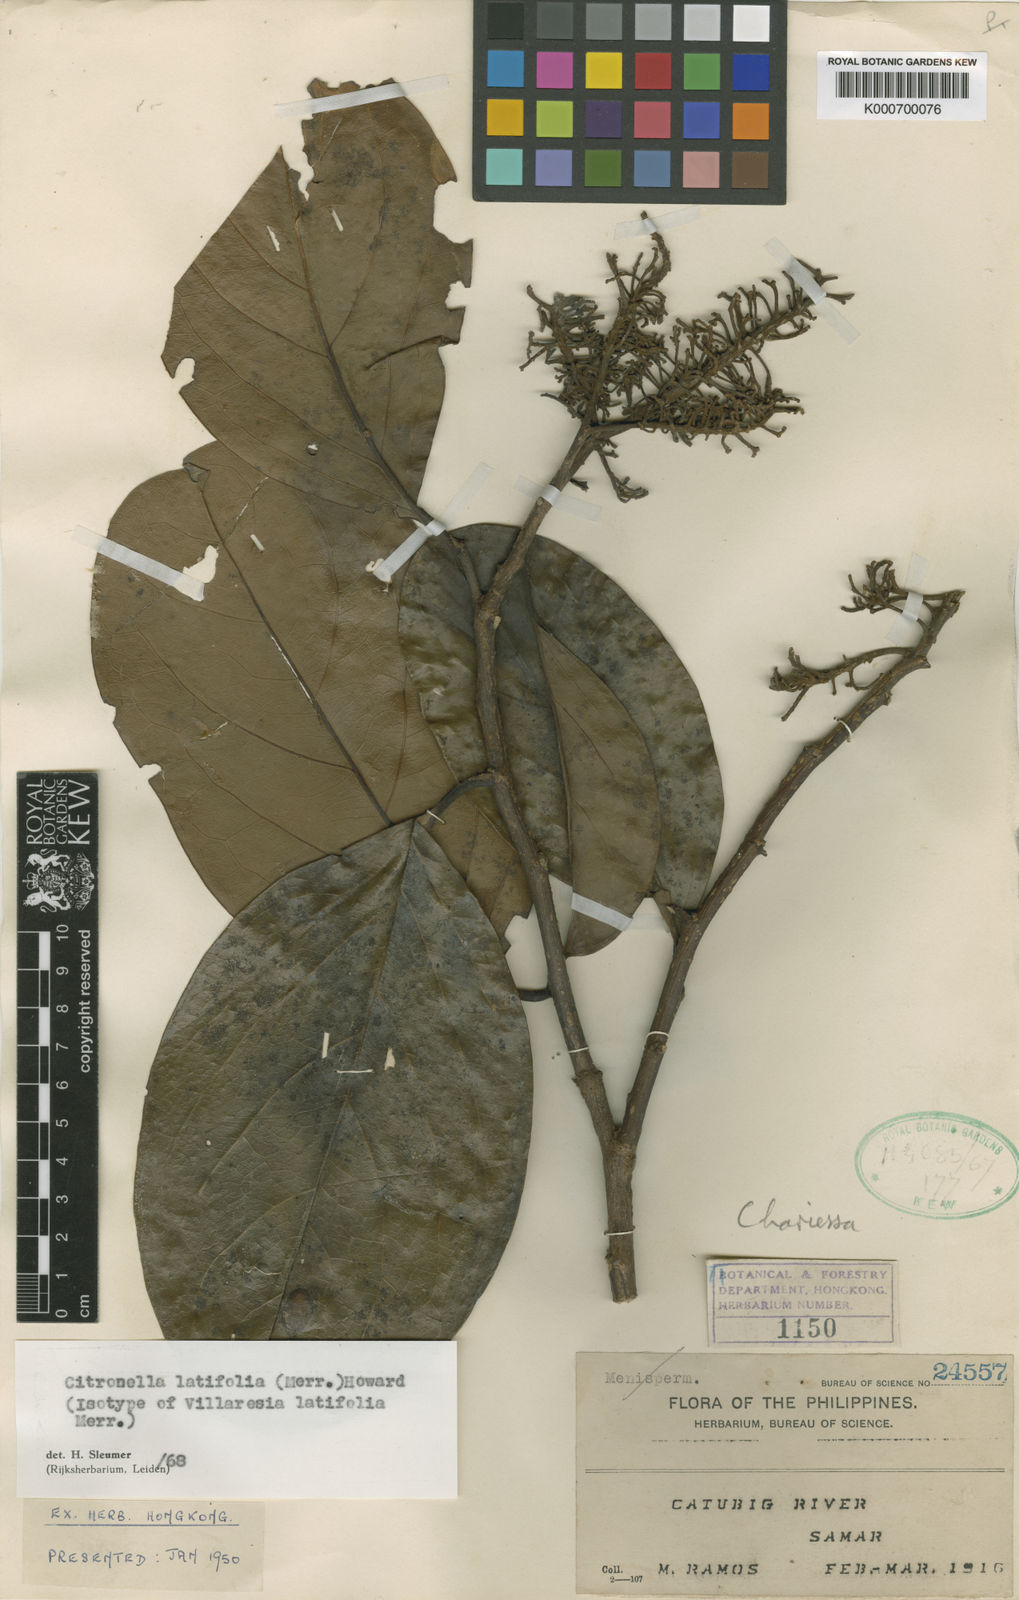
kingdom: Plantae
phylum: Tracheophyta
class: Magnoliopsida
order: Cardiopteridales
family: Cardiopteridaceae
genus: Citronella
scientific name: Citronella latifolia
